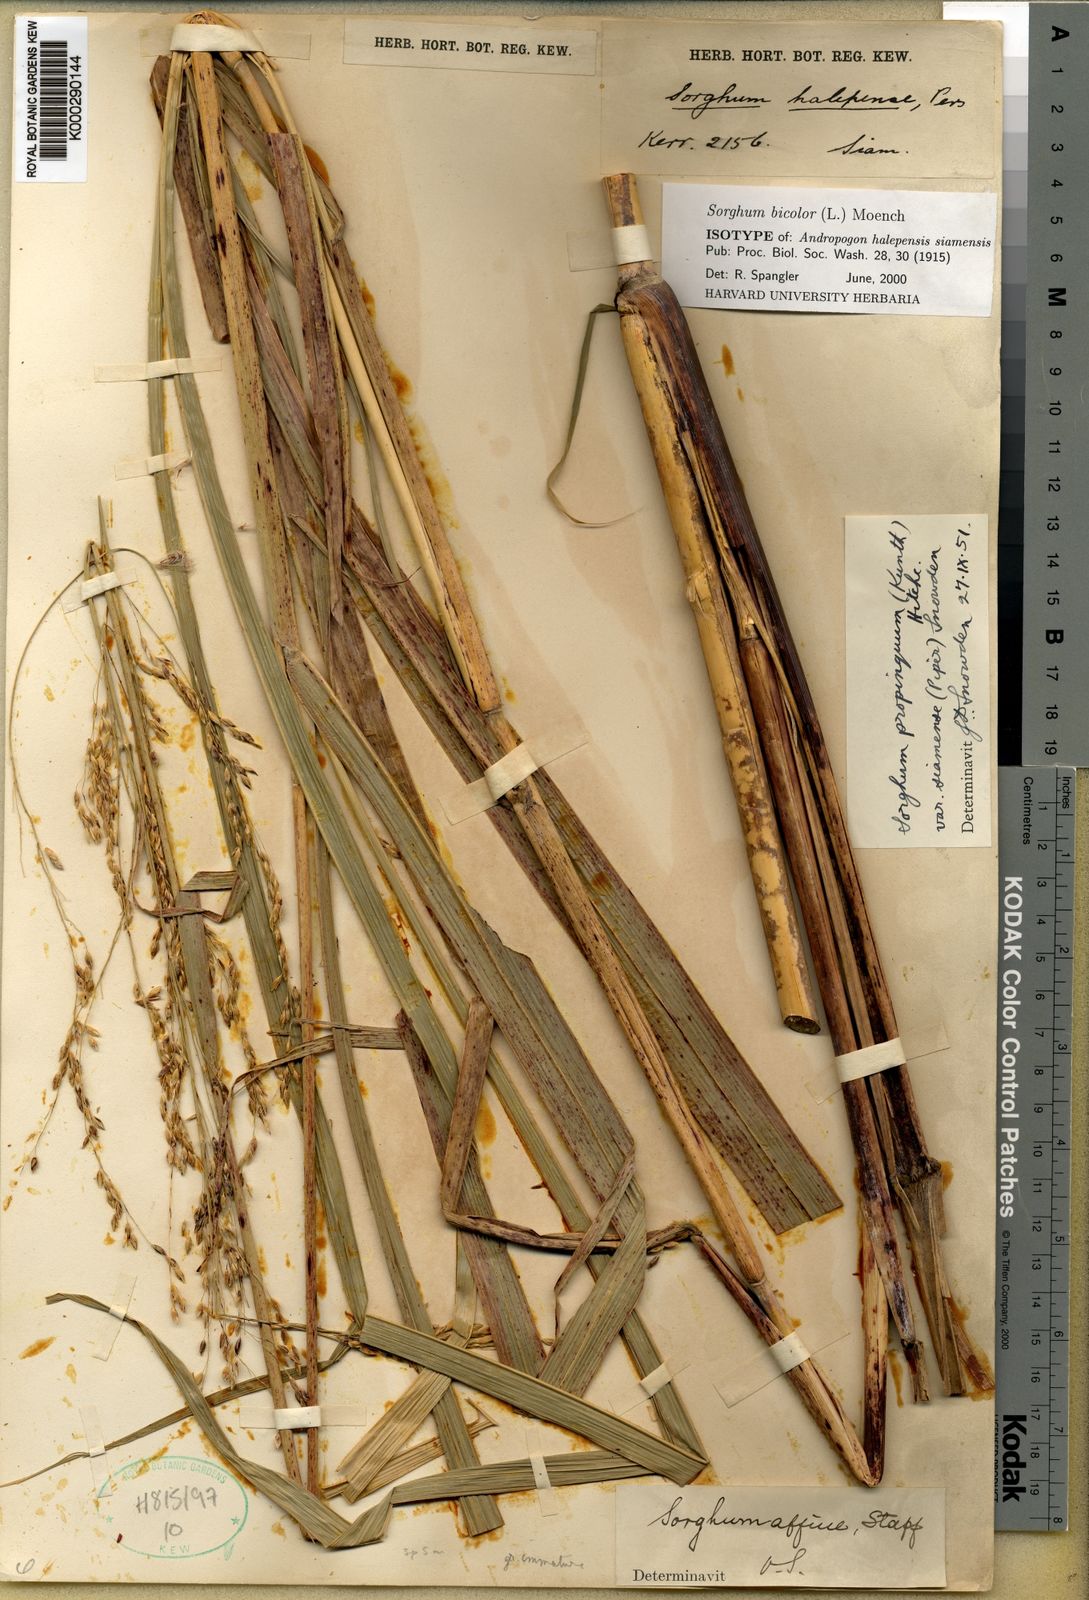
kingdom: Plantae
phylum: Tracheophyta
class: Liliopsida
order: Poales
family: Poaceae
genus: Sorghum
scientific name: Sorghum propinquum
